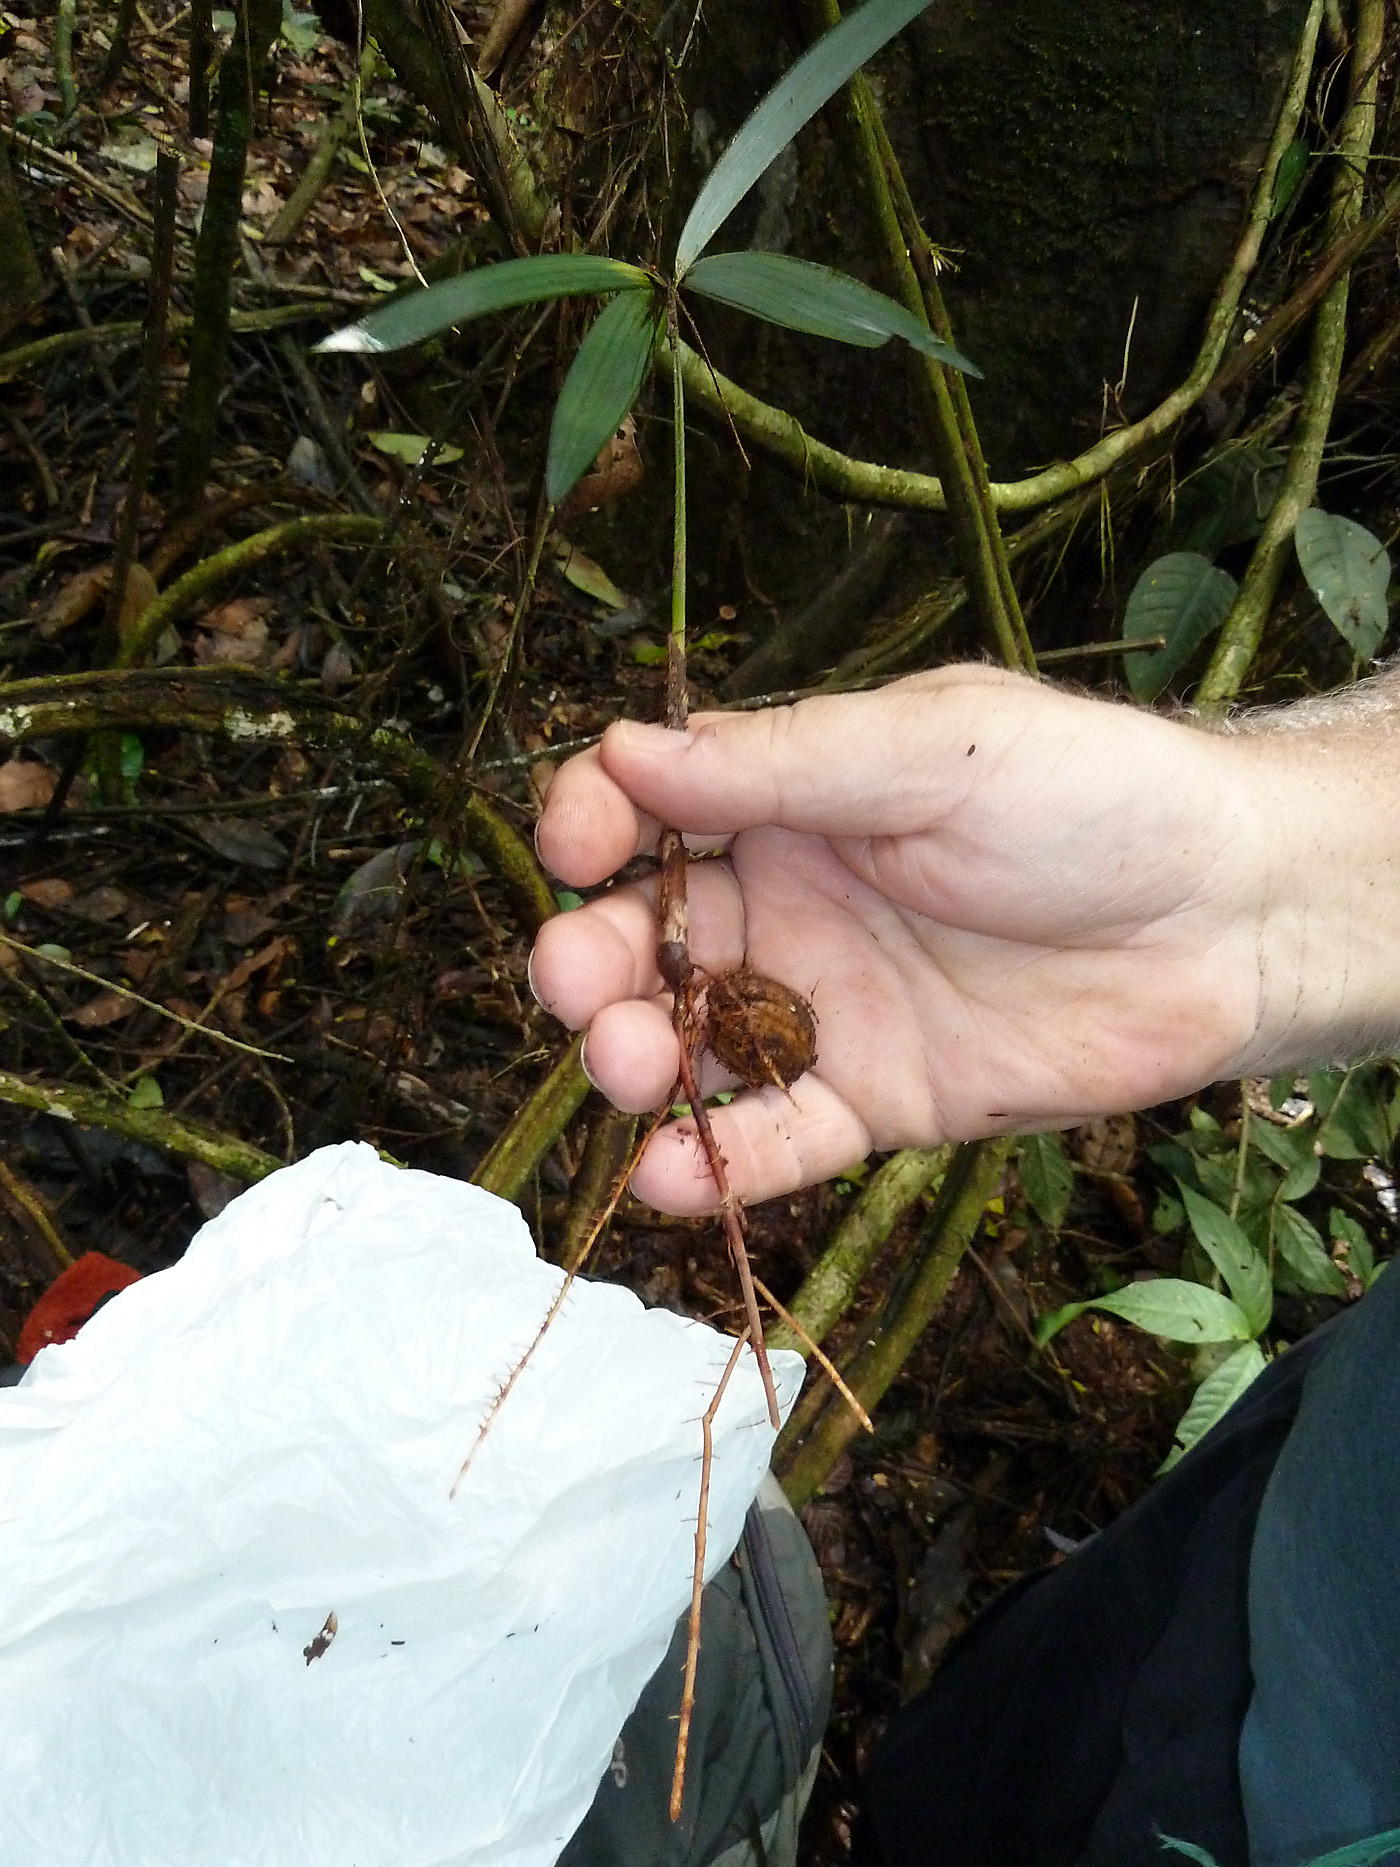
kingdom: Plantae
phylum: Tracheophyta
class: Liliopsida
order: Arecales
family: Arecaceae
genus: Oenocarpus
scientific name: Oenocarpus mapora
